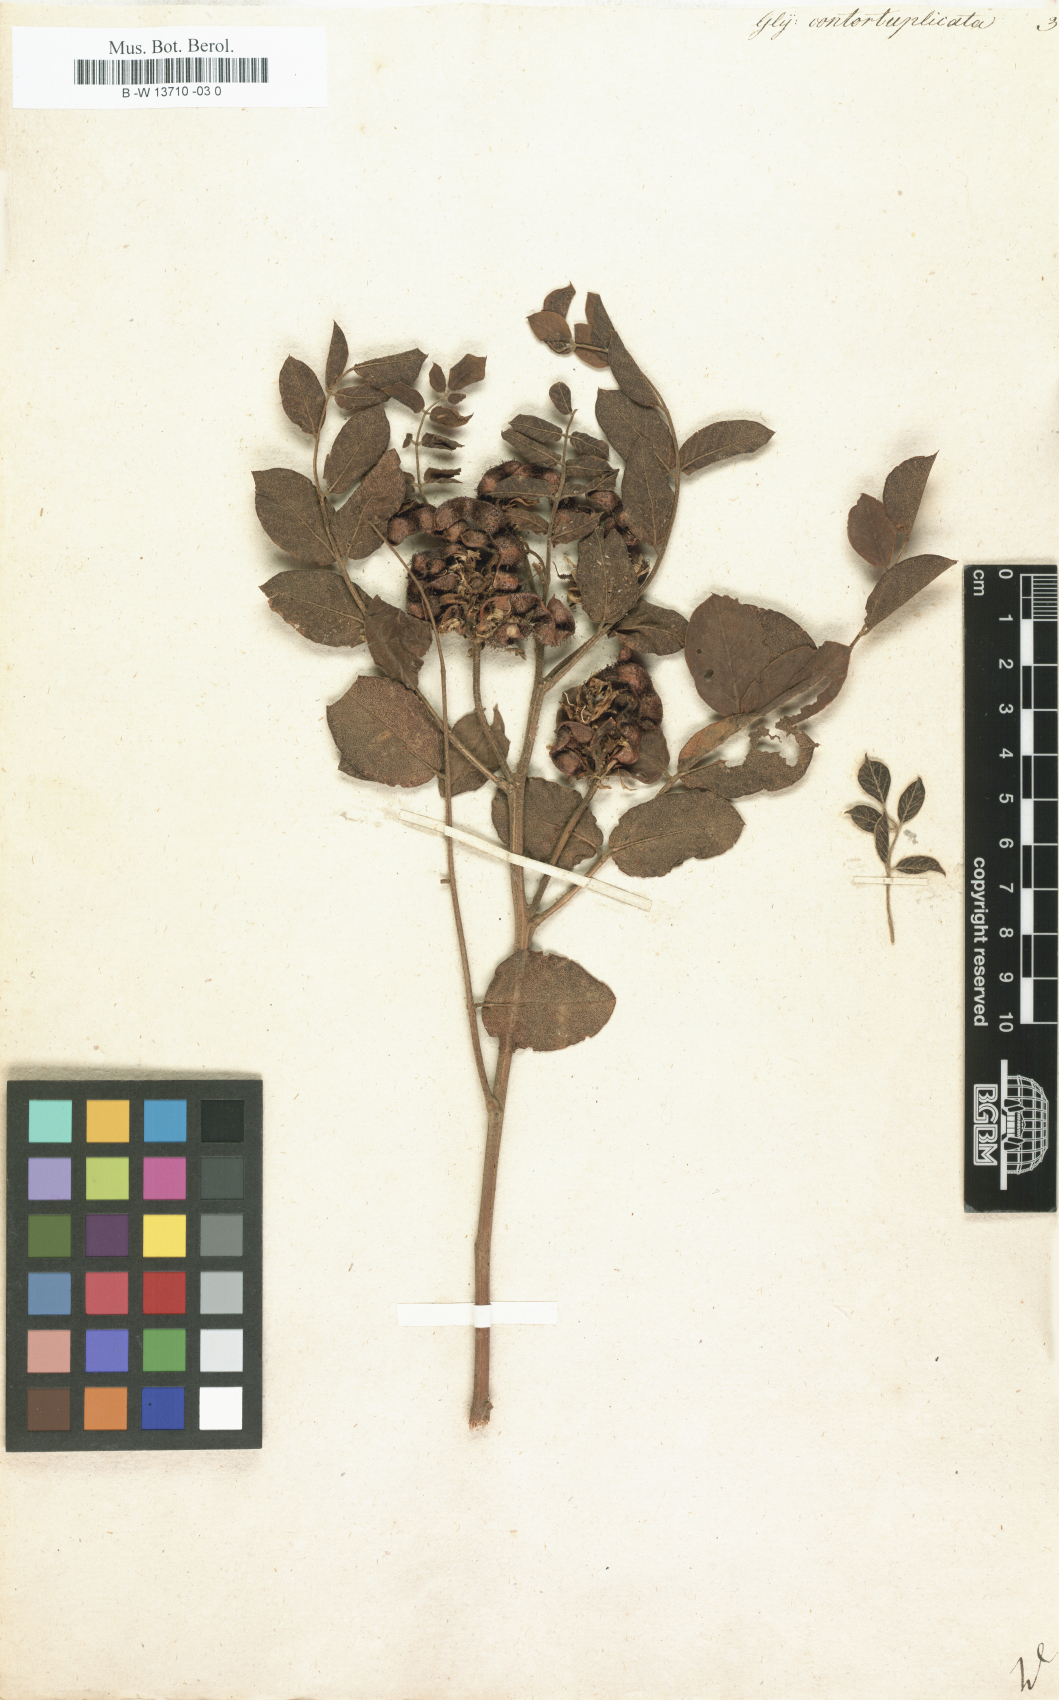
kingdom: Plantae
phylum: Tracheophyta
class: Magnoliopsida
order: Fabales
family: Fabaceae
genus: Glycyrrhiza
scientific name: Glycyrrhiza
